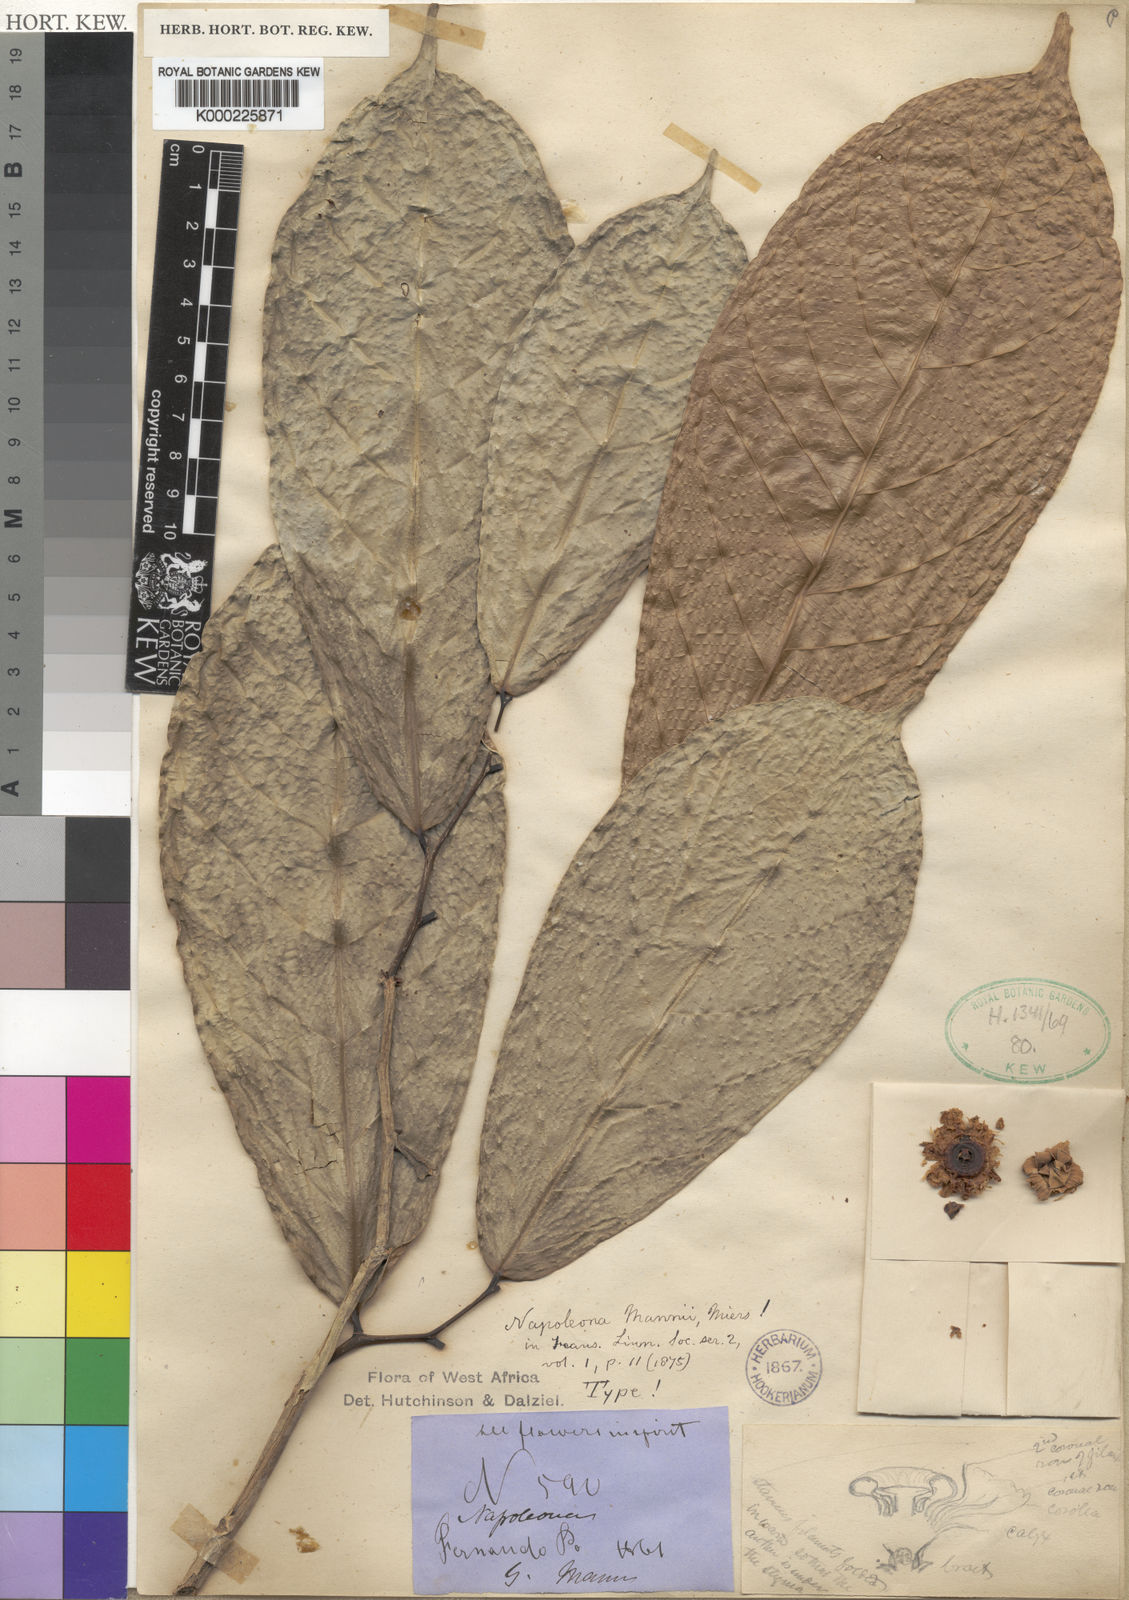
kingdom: Plantae
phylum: Tracheophyta
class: Magnoliopsida
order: Ericales
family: Lecythidaceae
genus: Napoleonaea
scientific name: Napoleonaea mannii
